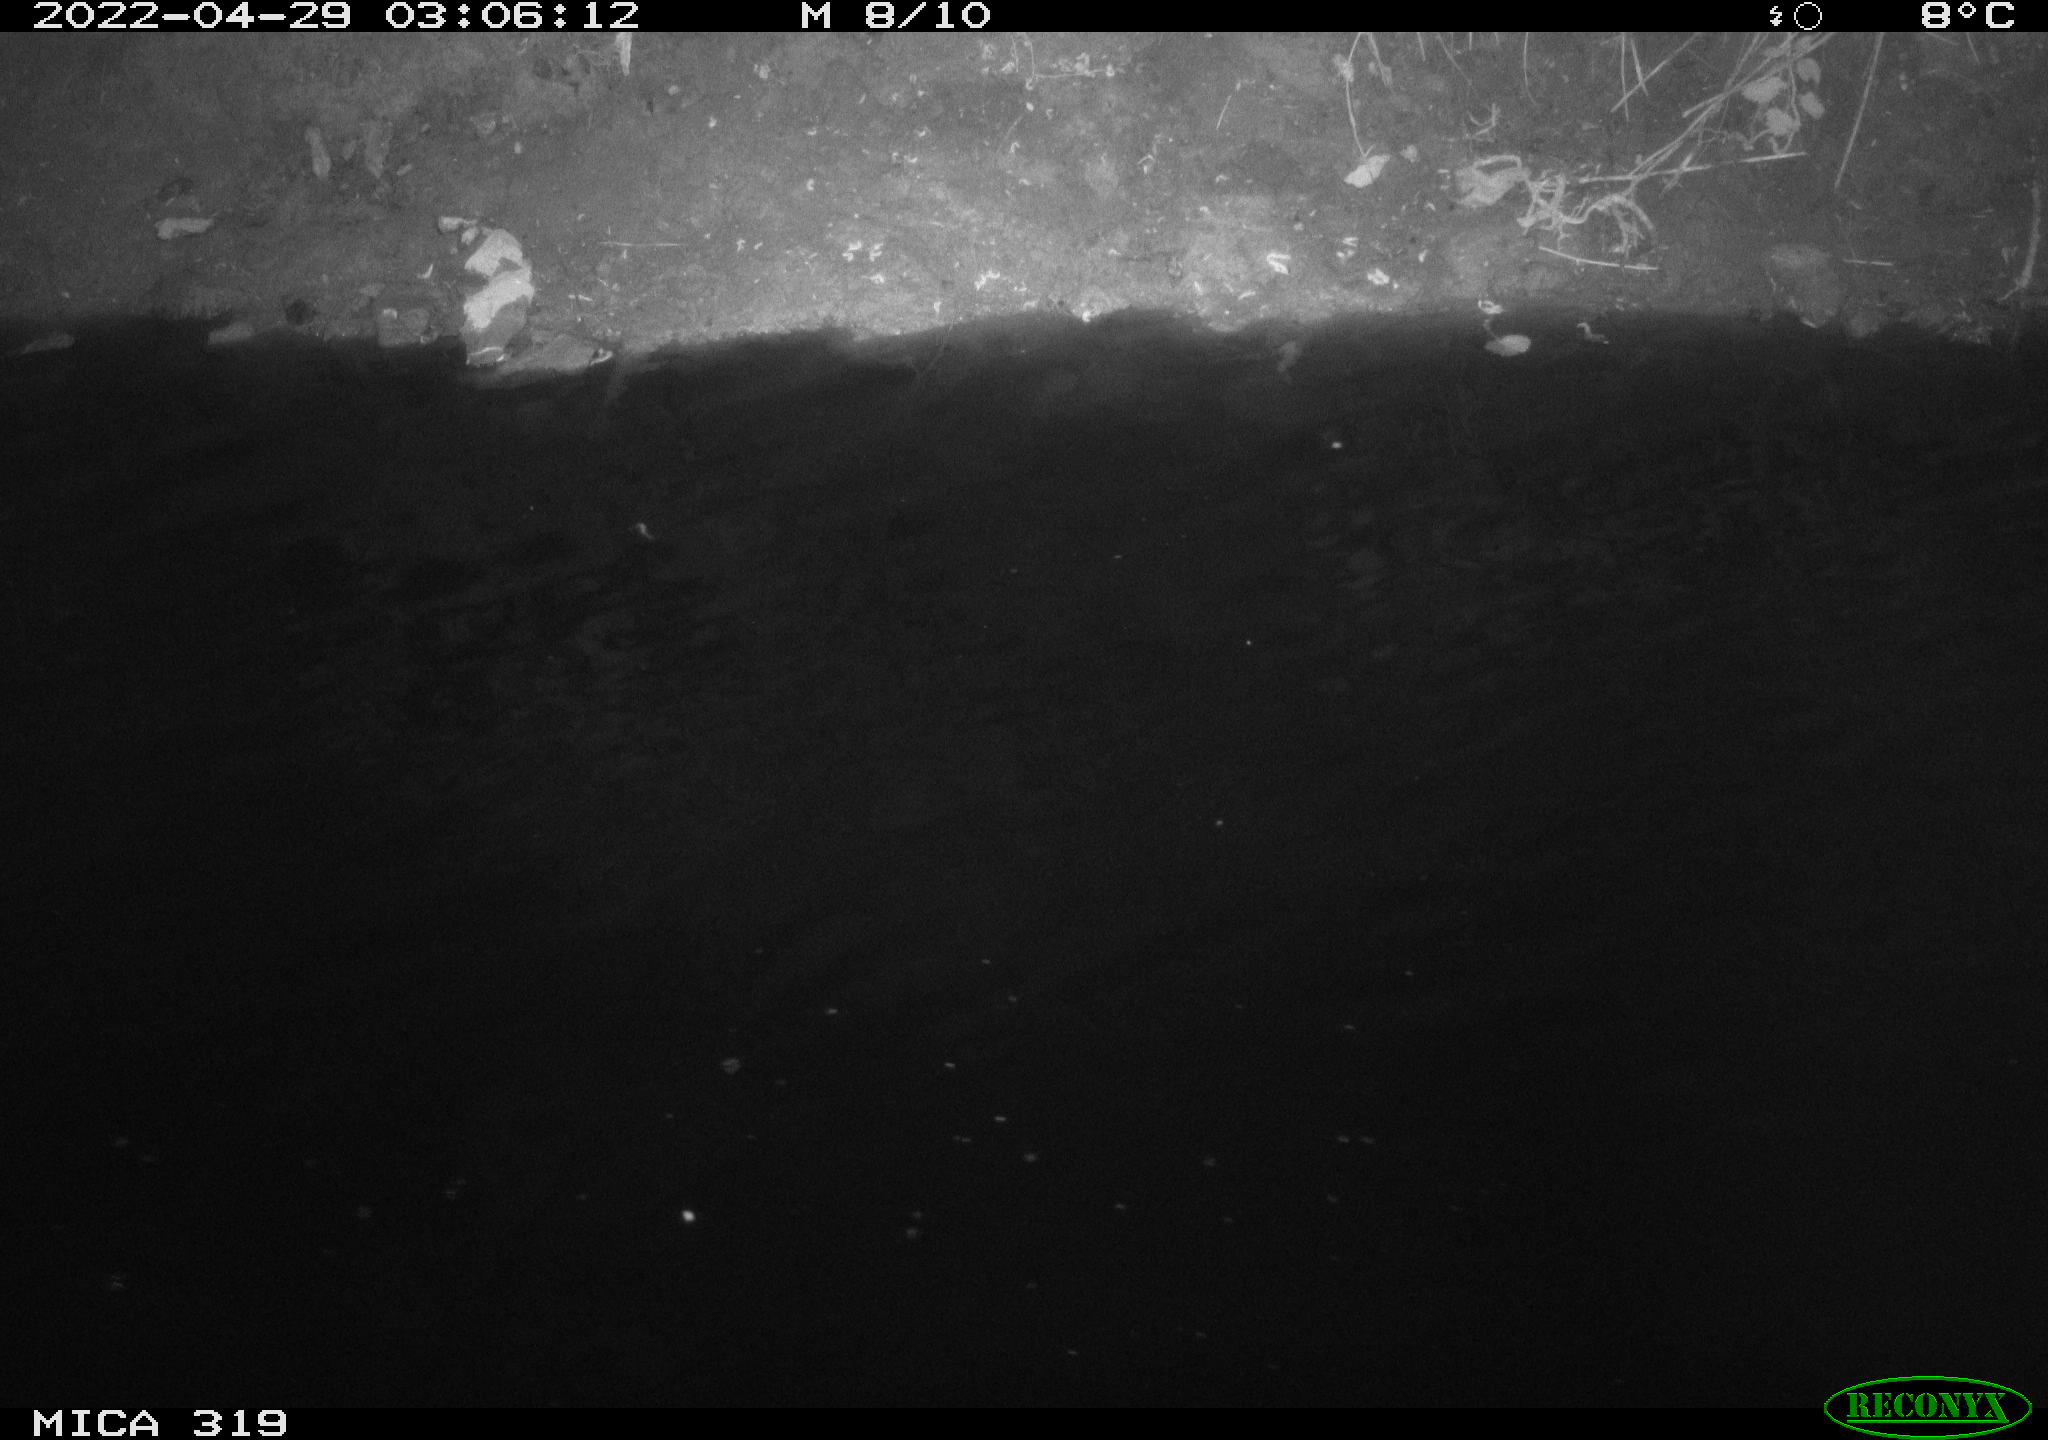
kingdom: Animalia
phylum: Chordata
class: Aves
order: Anseriformes
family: Anatidae
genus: Anas
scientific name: Anas platyrhynchos
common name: Mallard
